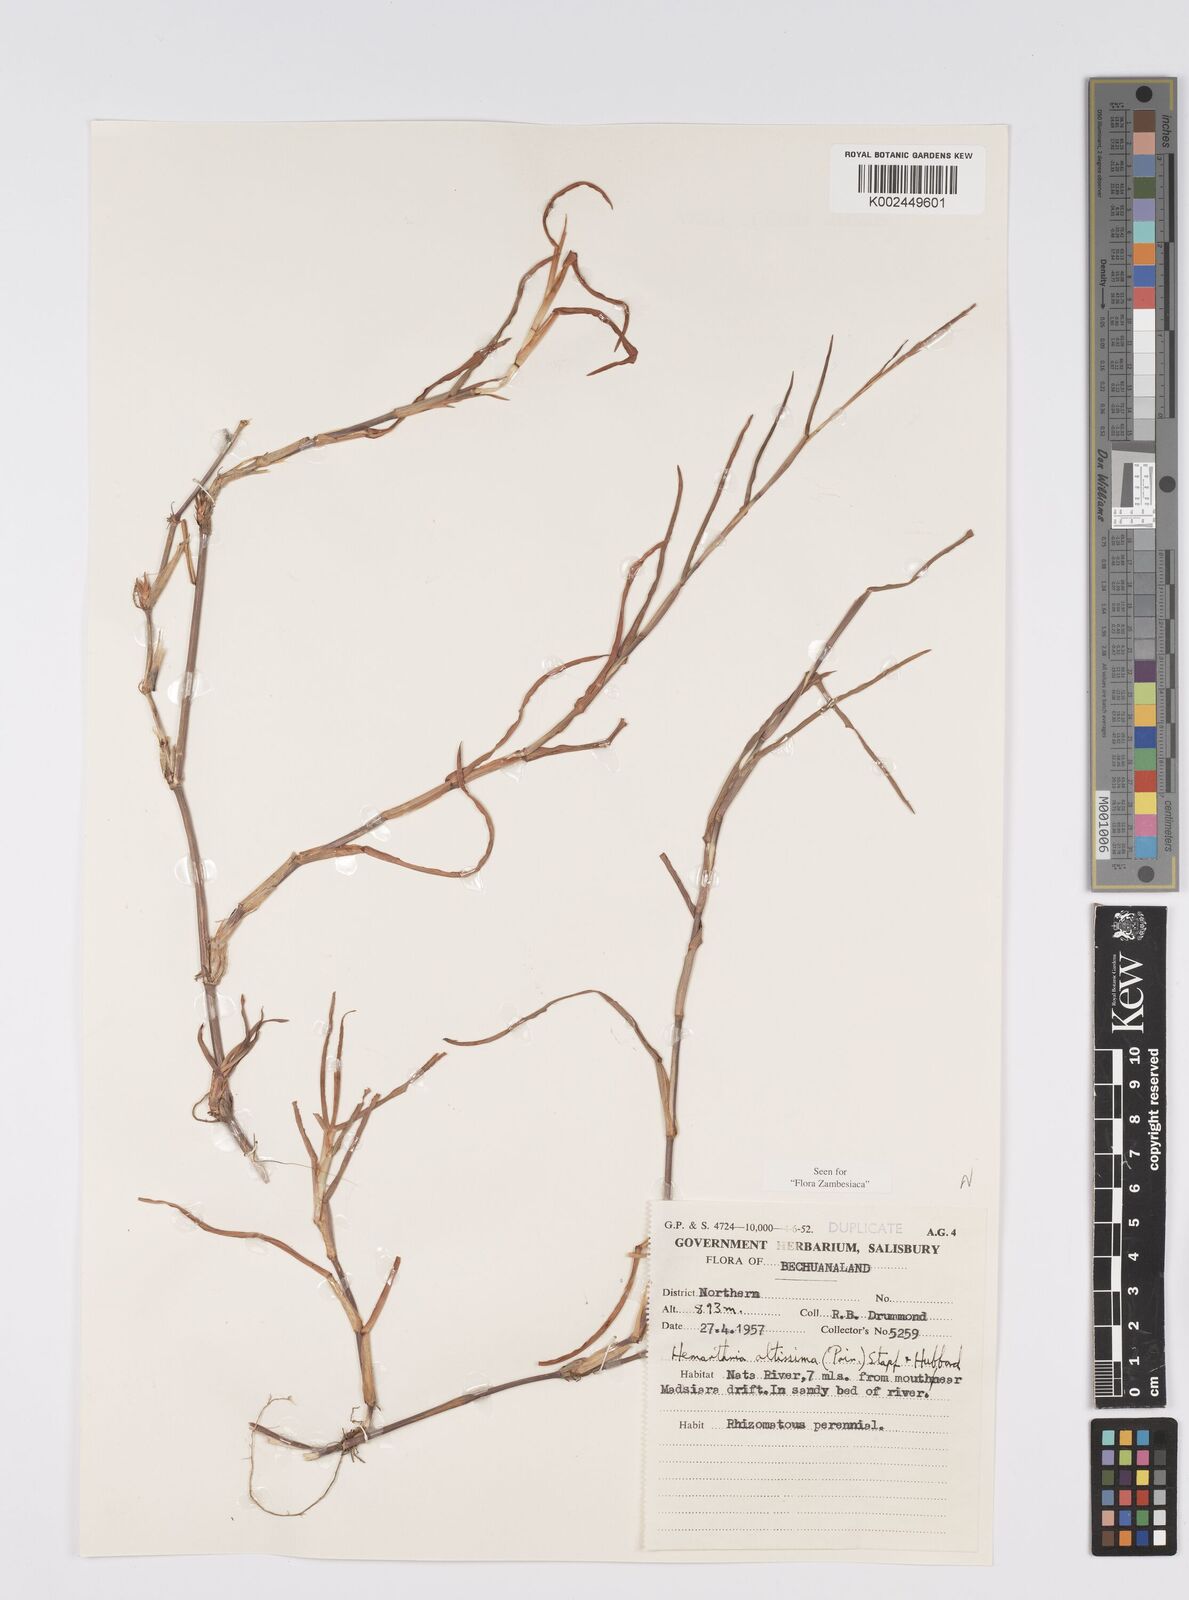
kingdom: Plantae
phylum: Tracheophyta
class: Liliopsida
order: Poales
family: Poaceae
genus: Hemarthria
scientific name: Hemarthria altissima
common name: African jointgrass
